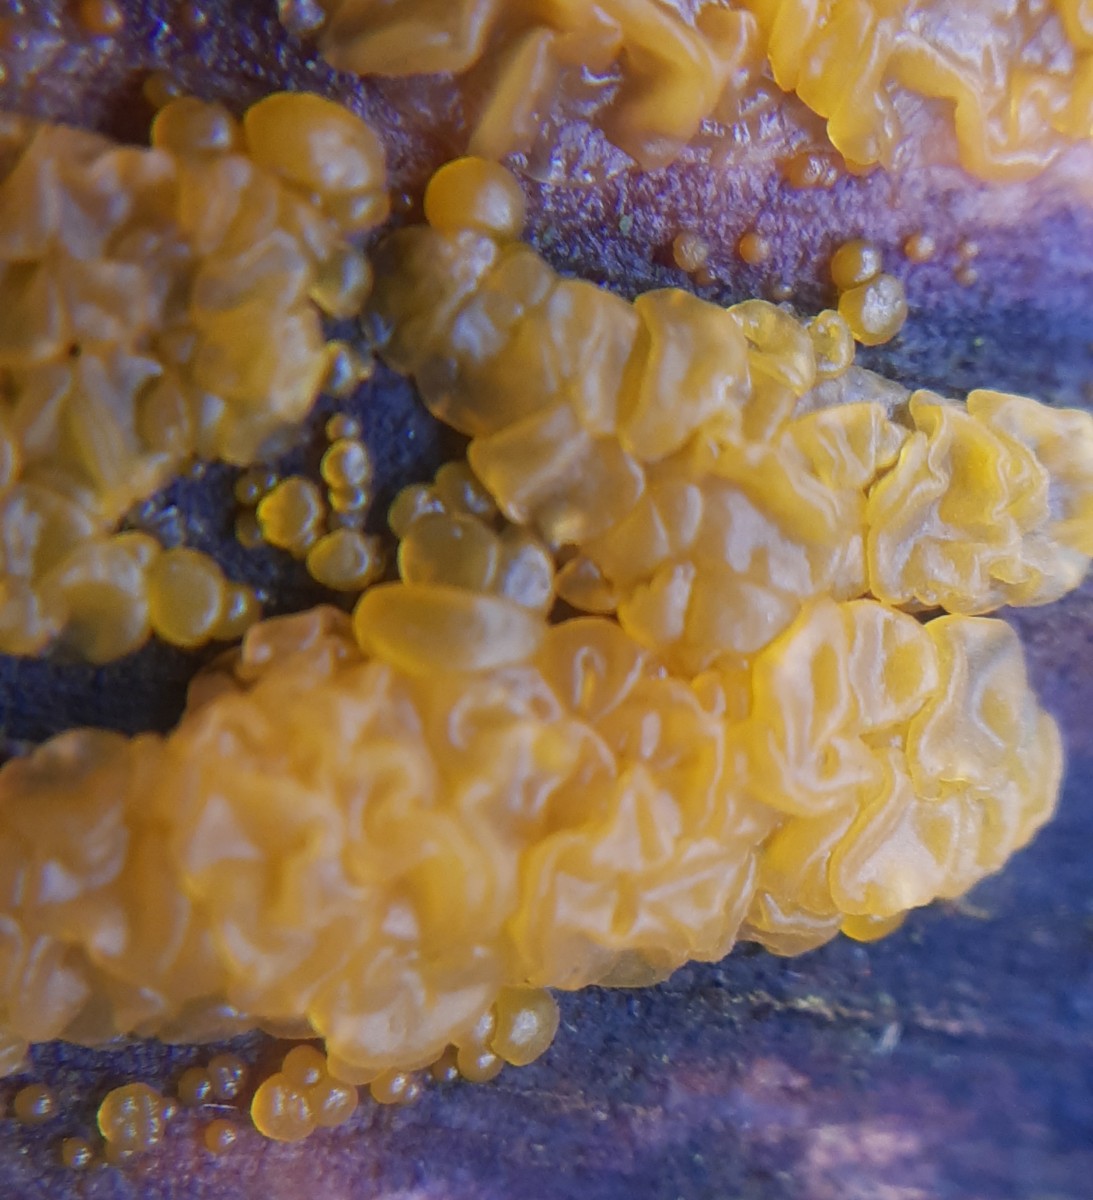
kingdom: Fungi
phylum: Basidiomycota
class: Dacrymycetes
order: Dacrymycetales
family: Dacrymycetaceae
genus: Dacrymyces
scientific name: Dacrymyces lacrymalis
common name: rynket tåresvamp
